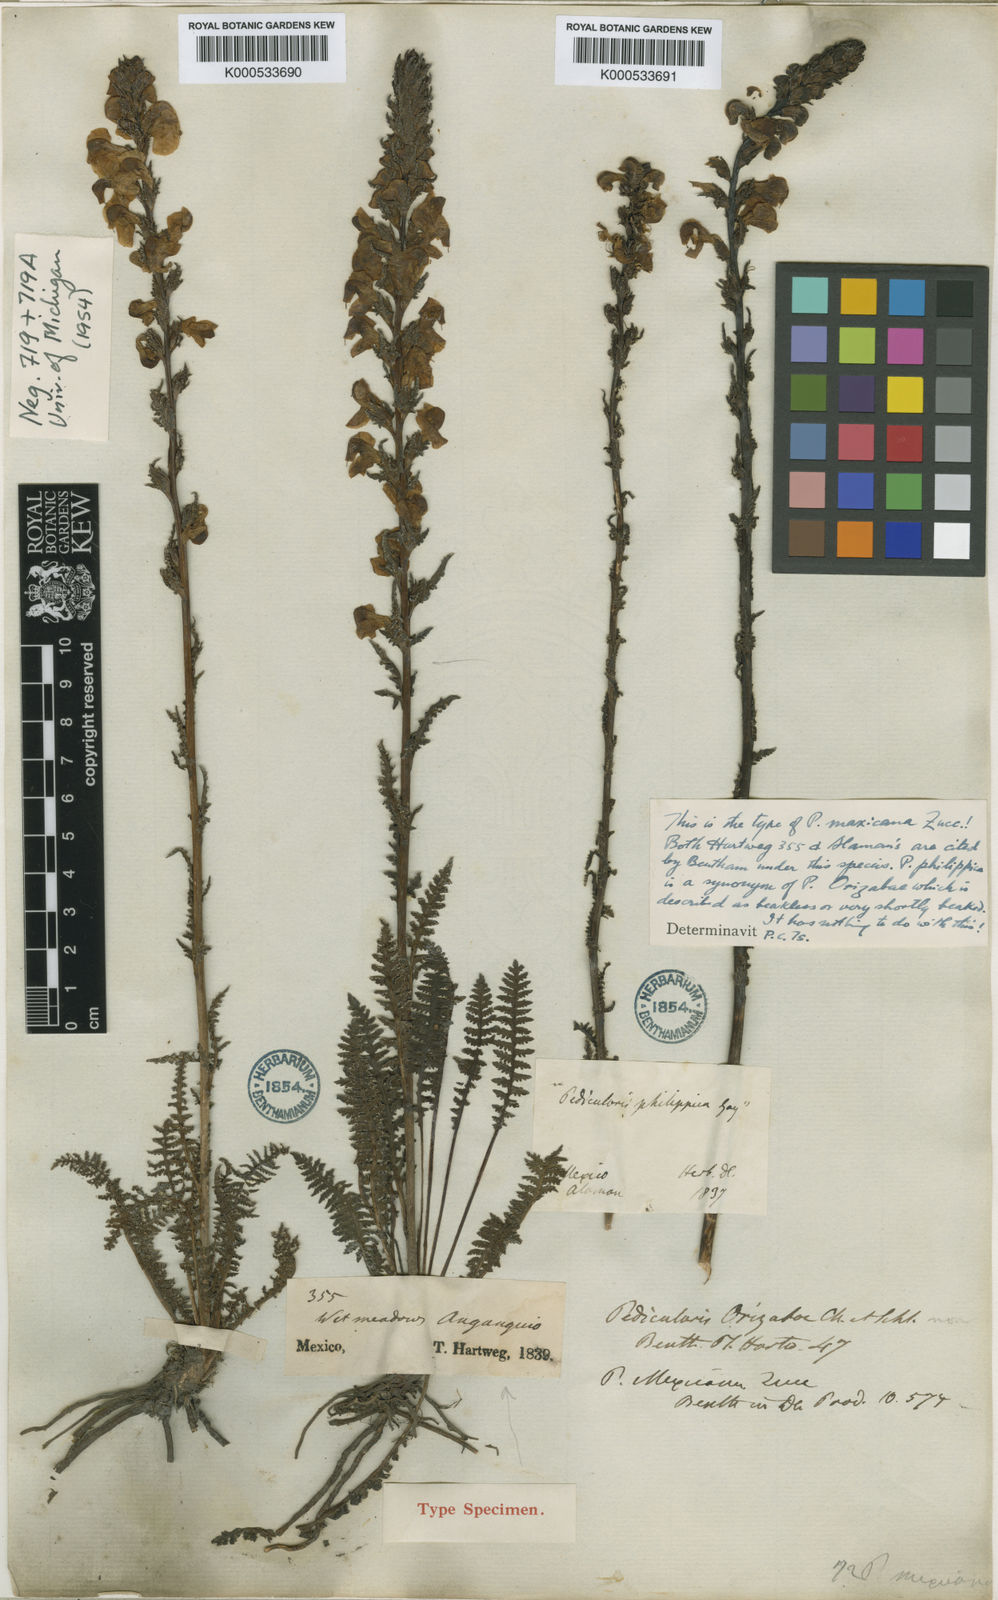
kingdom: Plantae
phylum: Tracheophyta
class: Magnoliopsida
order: Lamiales
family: Orobanchaceae
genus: Pedicularis
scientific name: Pedicularis
